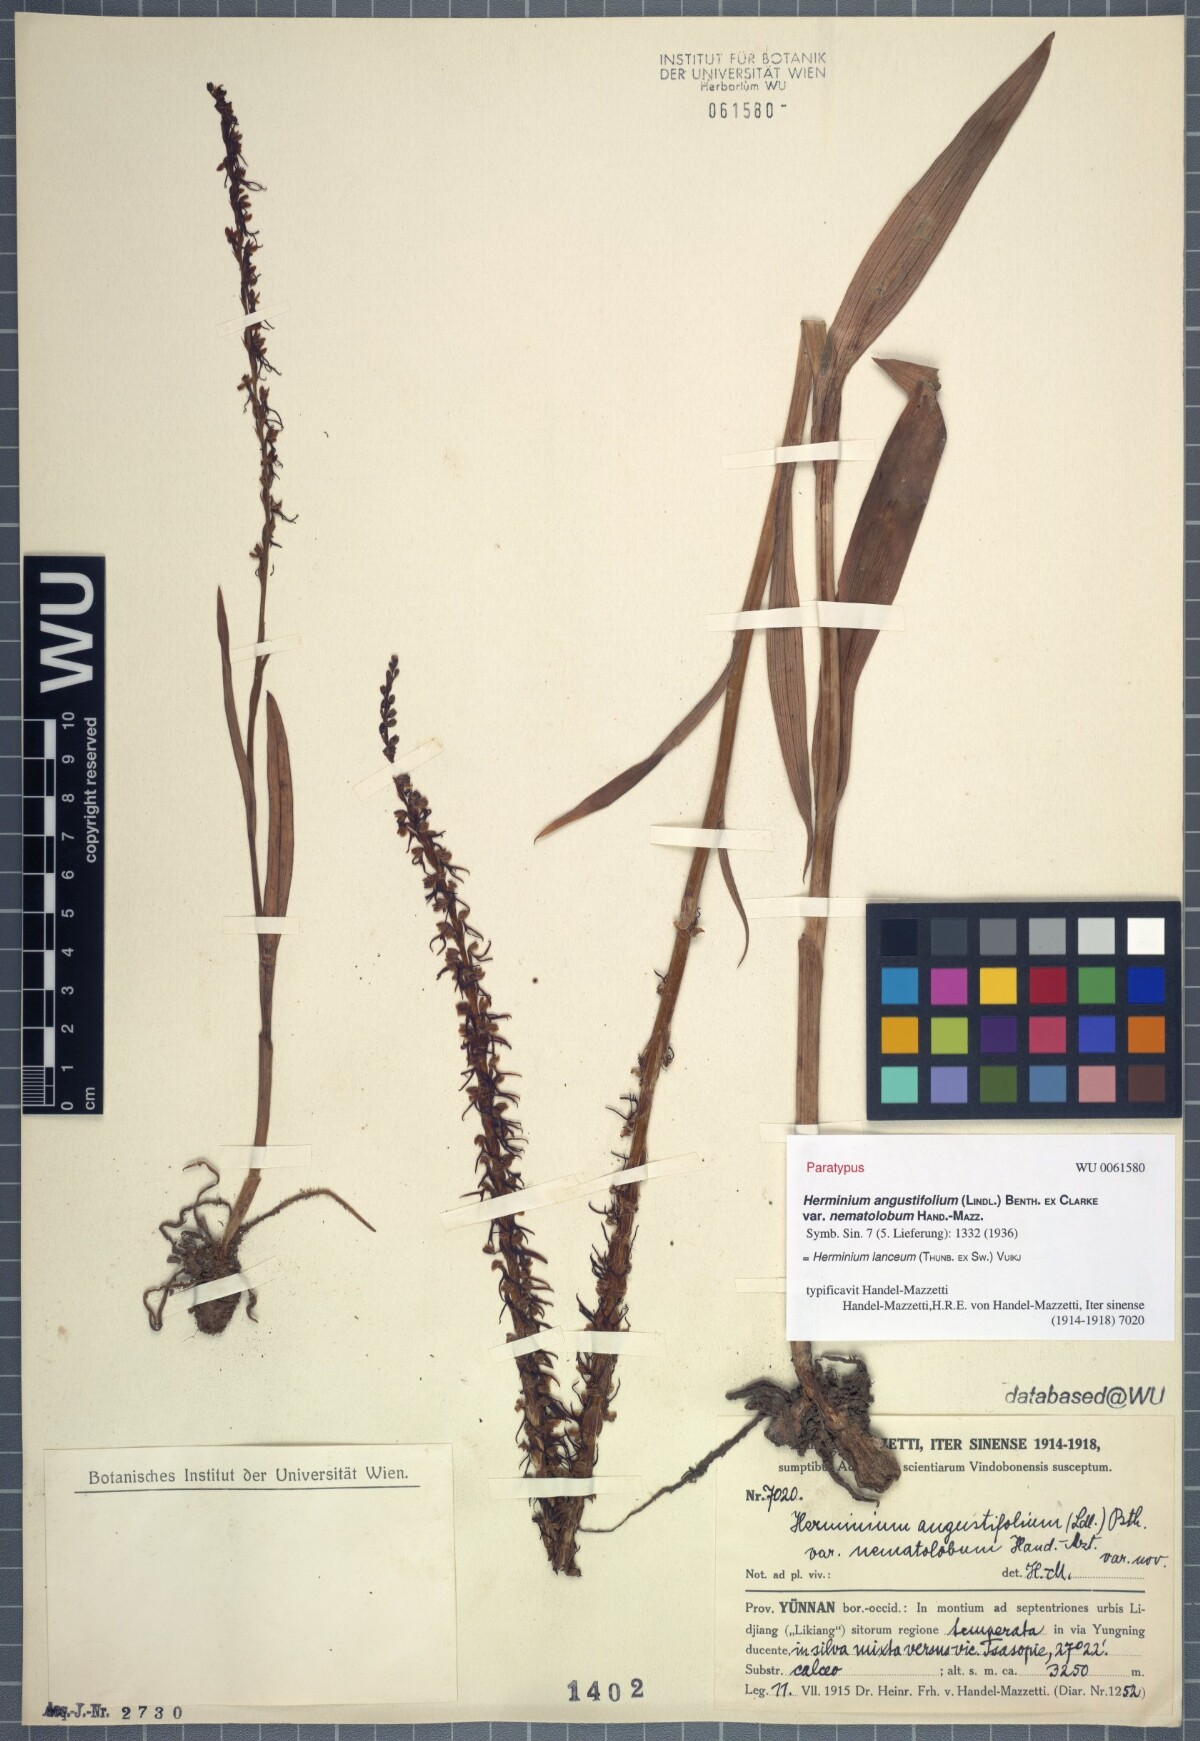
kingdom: Plantae
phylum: Tracheophyta
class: Liliopsida
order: Asparagales
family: Orchidaceae
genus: Herminium
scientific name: Herminium lanceum
